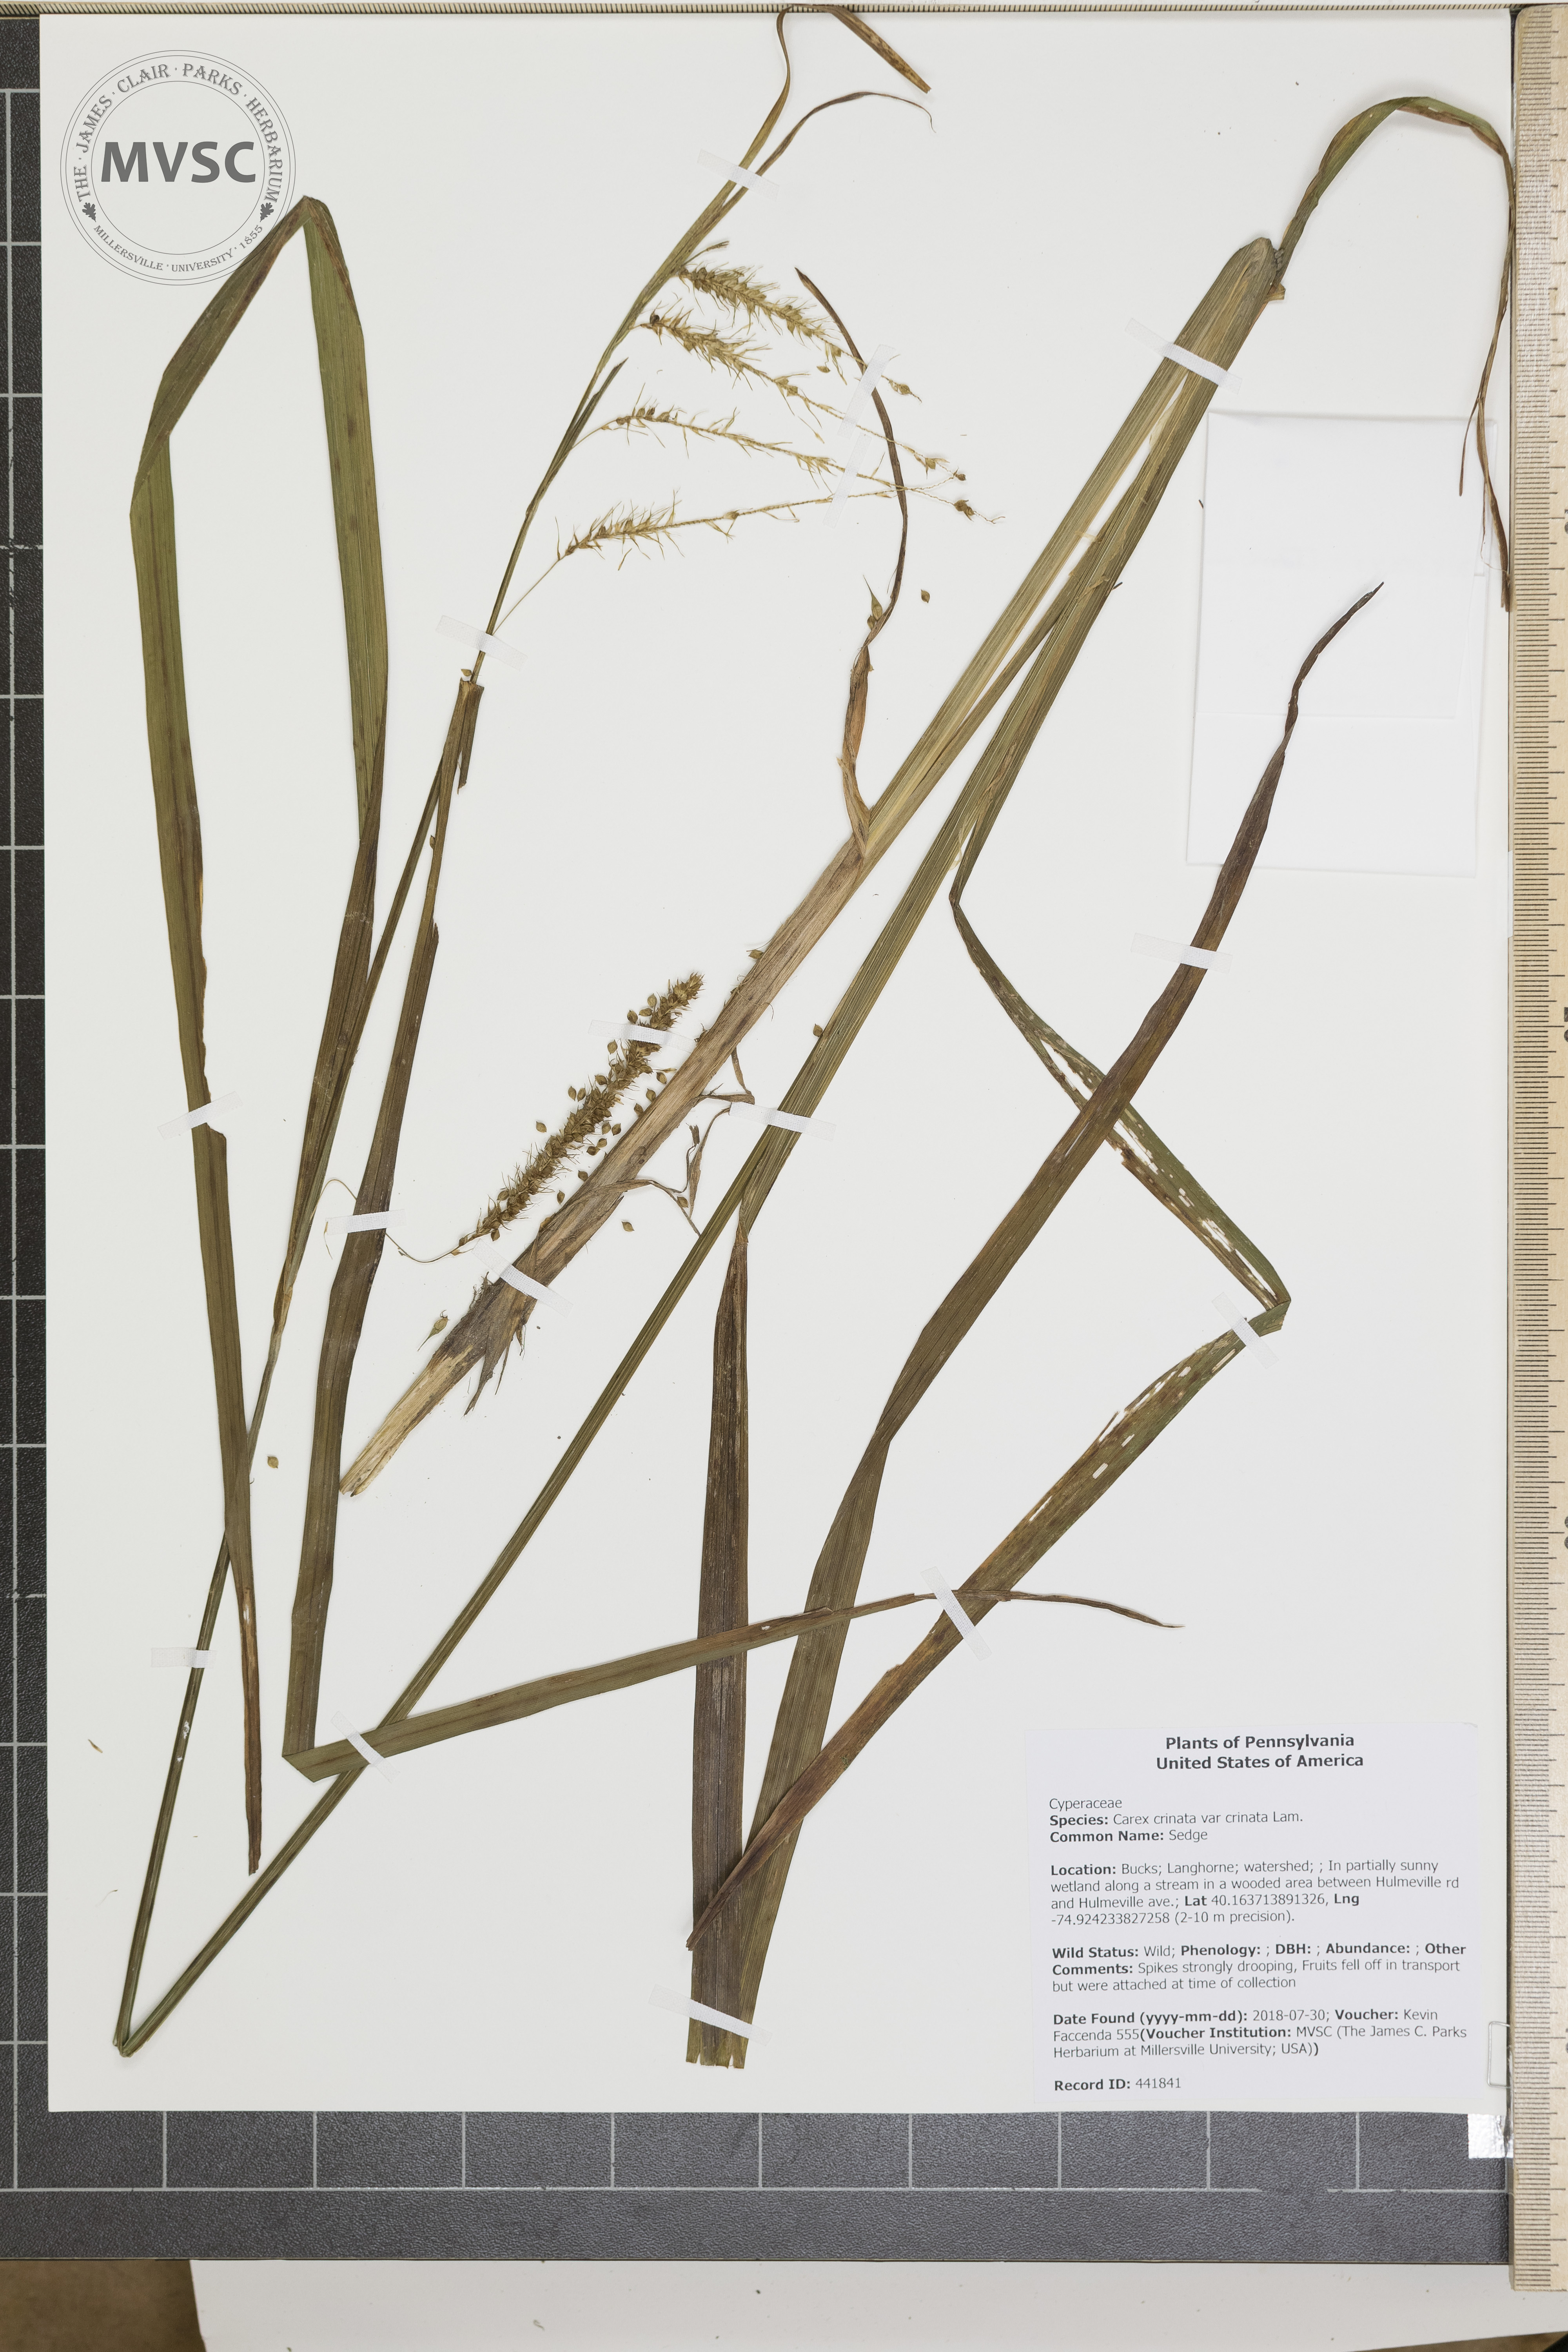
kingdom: Plantae
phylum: Tracheophyta
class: Liliopsida
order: Poales
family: Cyperaceae
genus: Carex
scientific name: Carex crinita
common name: Sedge
